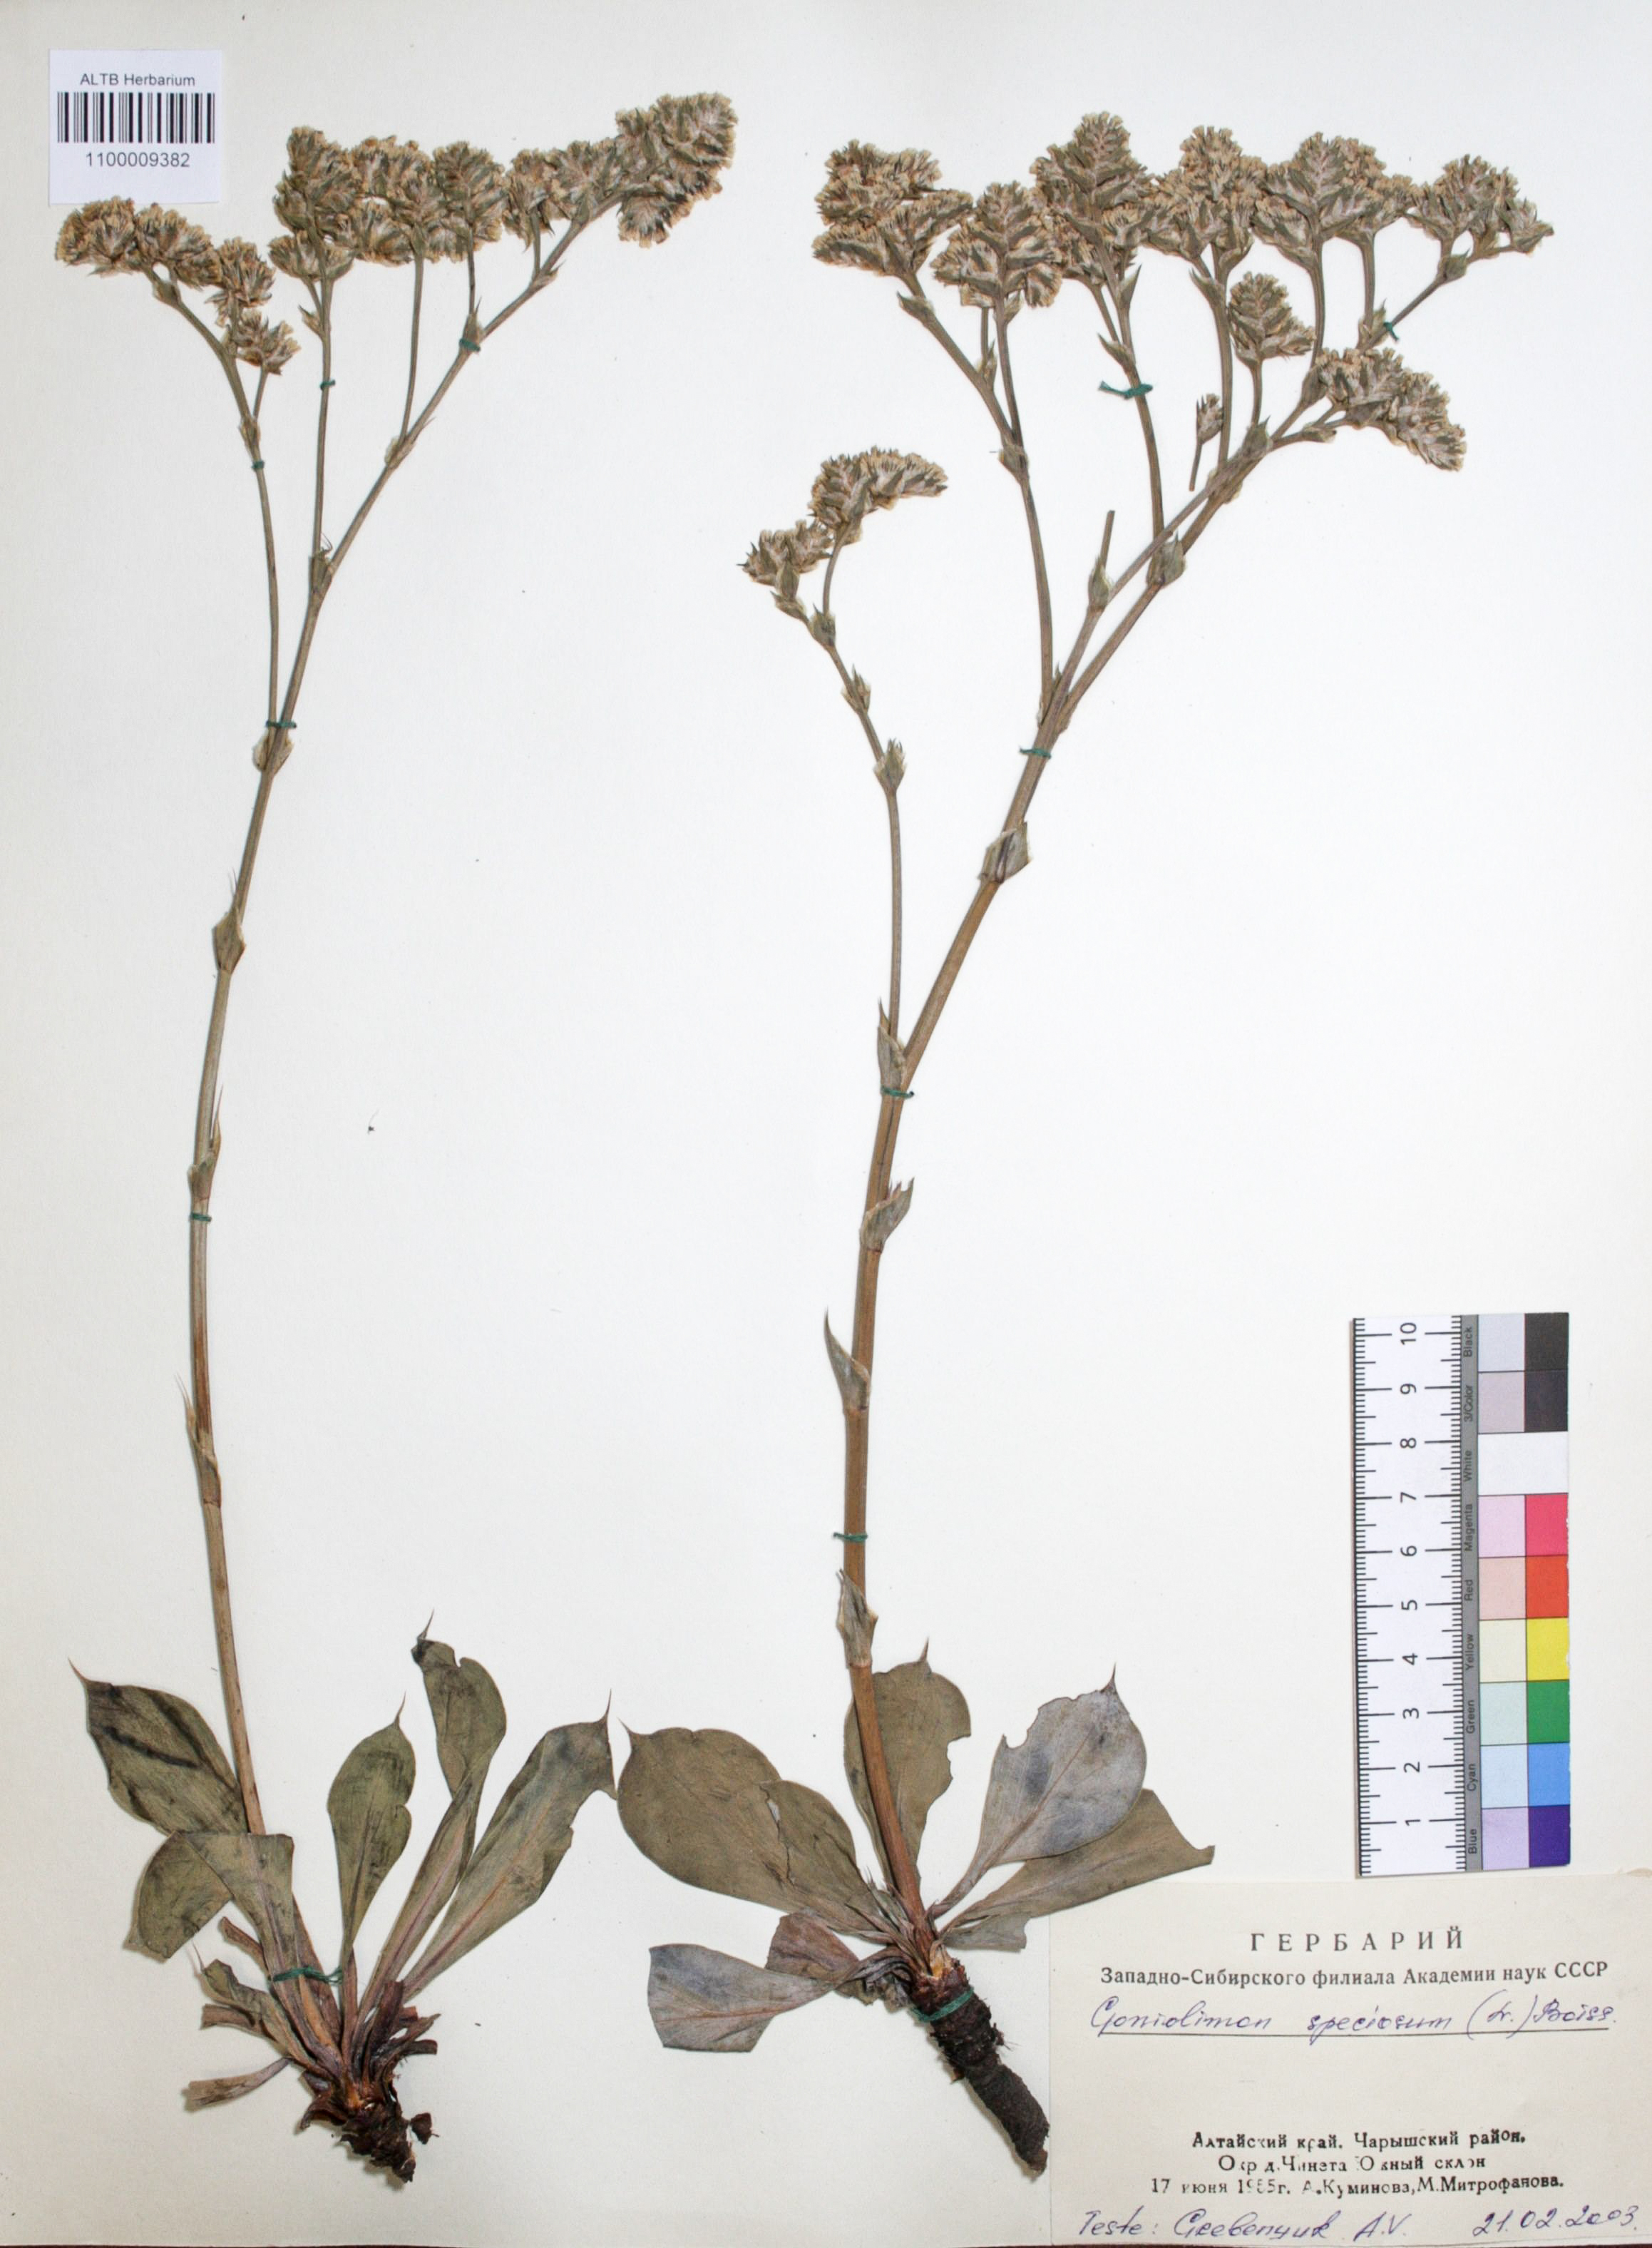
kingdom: Plantae
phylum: Tracheophyta
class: Magnoliopsida
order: Caryophyllales
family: Plumbaginaceae
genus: Goniolimon
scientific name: Goniolimon speciosum
